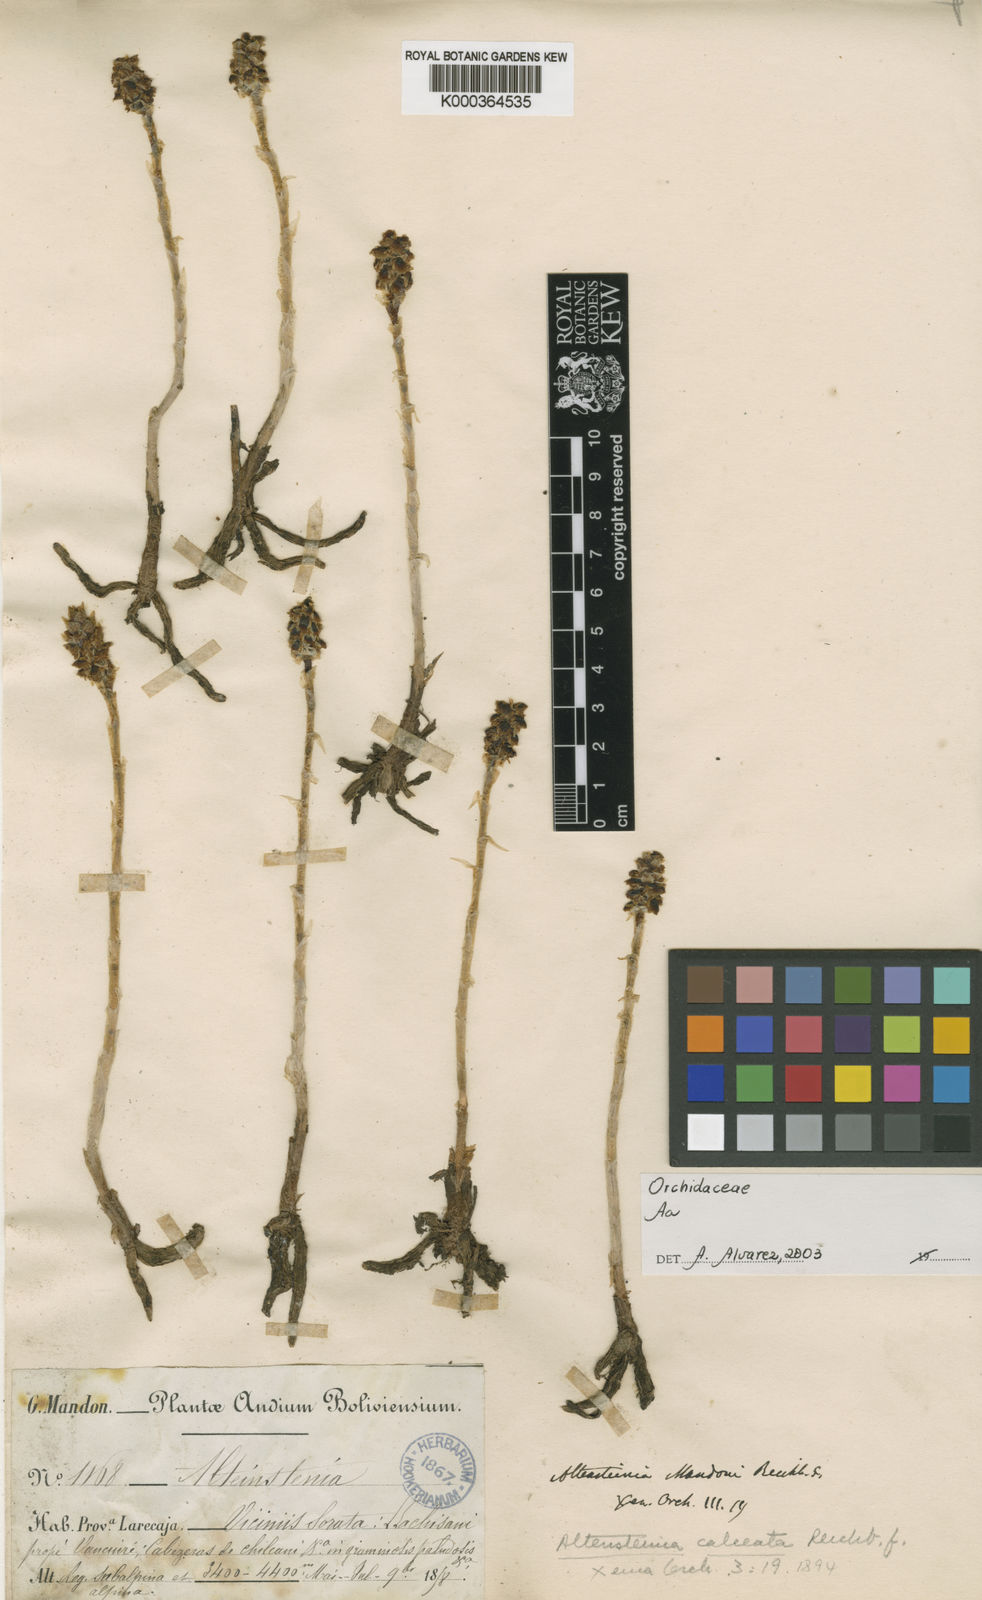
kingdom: Plantae
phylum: Tracheophyta
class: Liliopsida
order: Asparagales
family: Orchidaceae
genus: Aa
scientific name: Aa calceata
